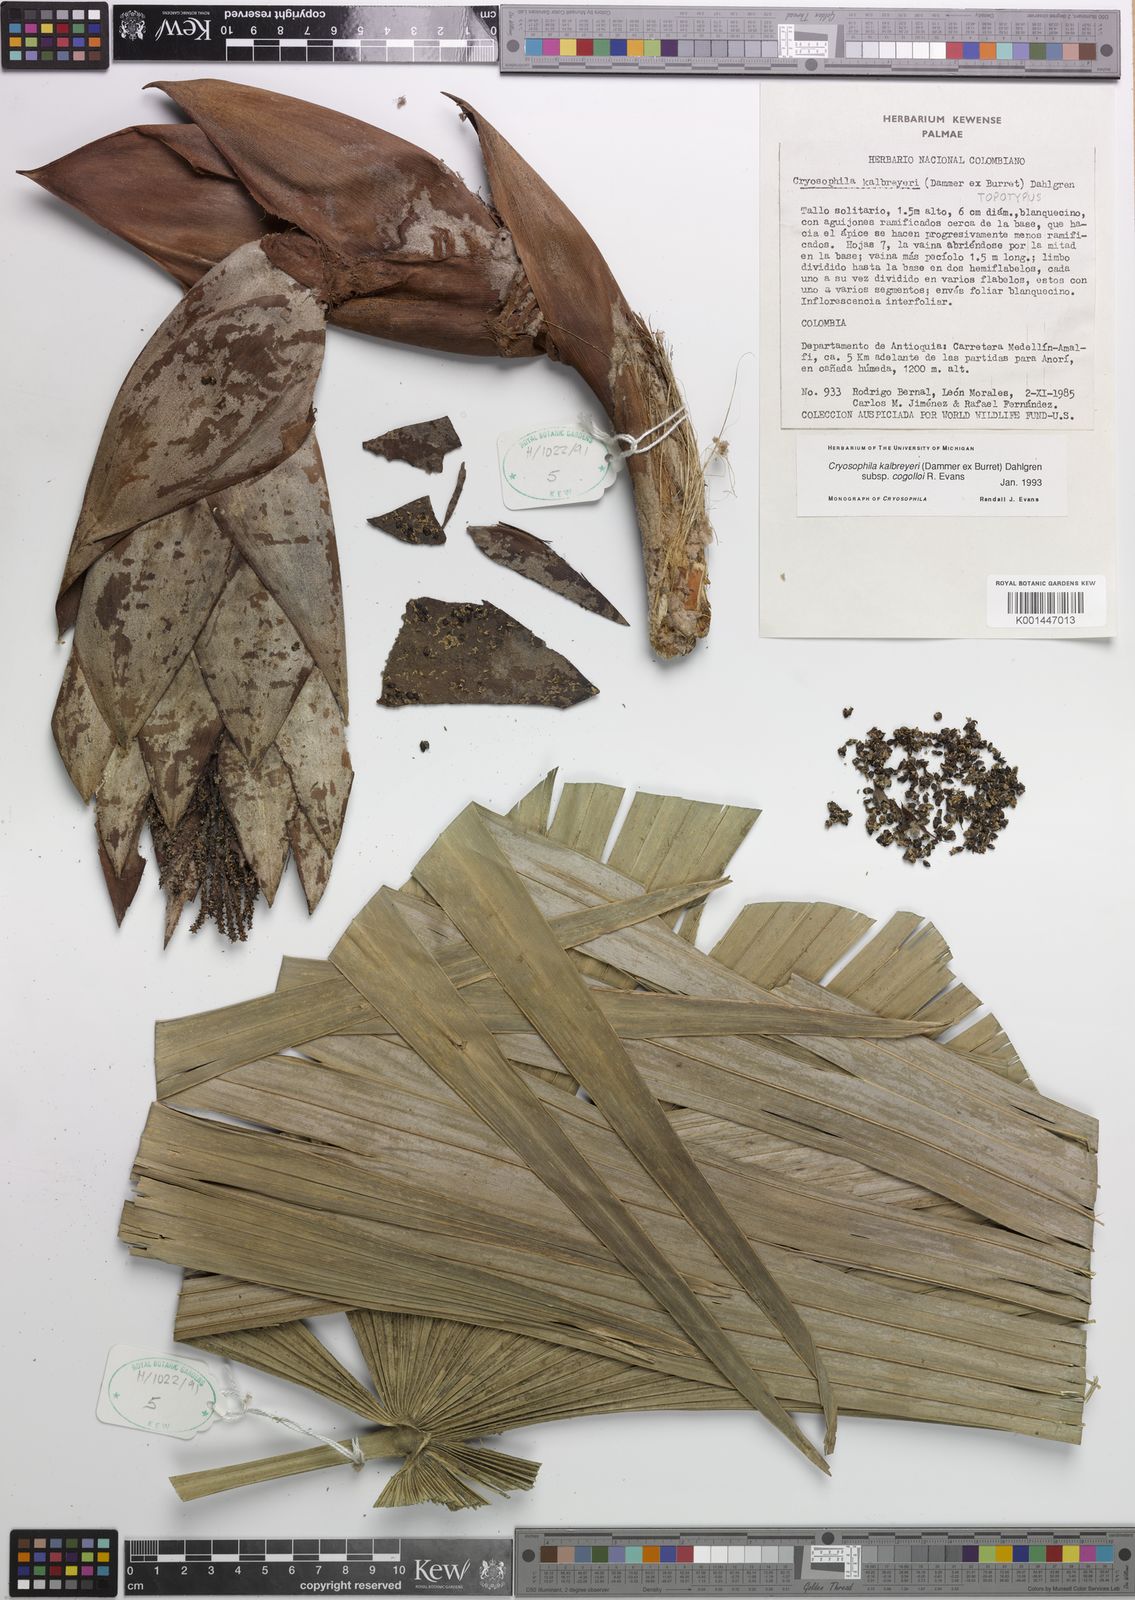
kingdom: Plantae
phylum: Tracheophyta
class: Liliopsida
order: Arecales
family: Arecaceae
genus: Cryosophila
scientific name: Cryosophila kalbreyeri
